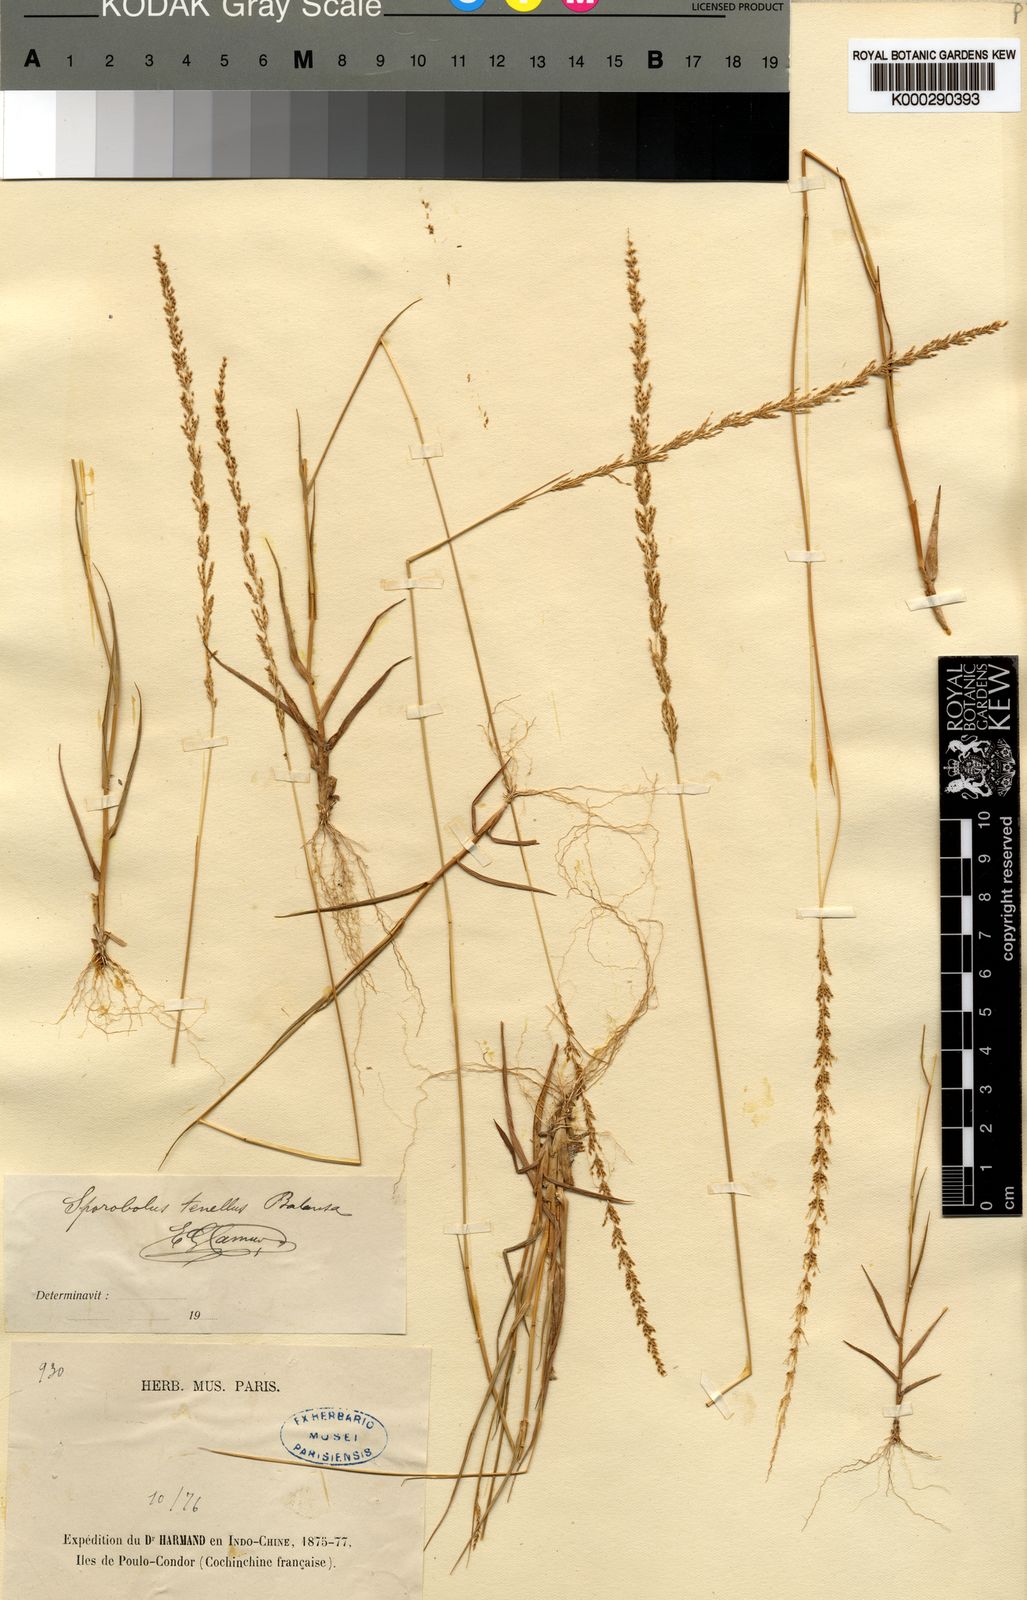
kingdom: Plantae
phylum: Tracheophyta
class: Liliopsida
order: Poales
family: Poaceae
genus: Sporobolus
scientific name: Sporobolus balansae
